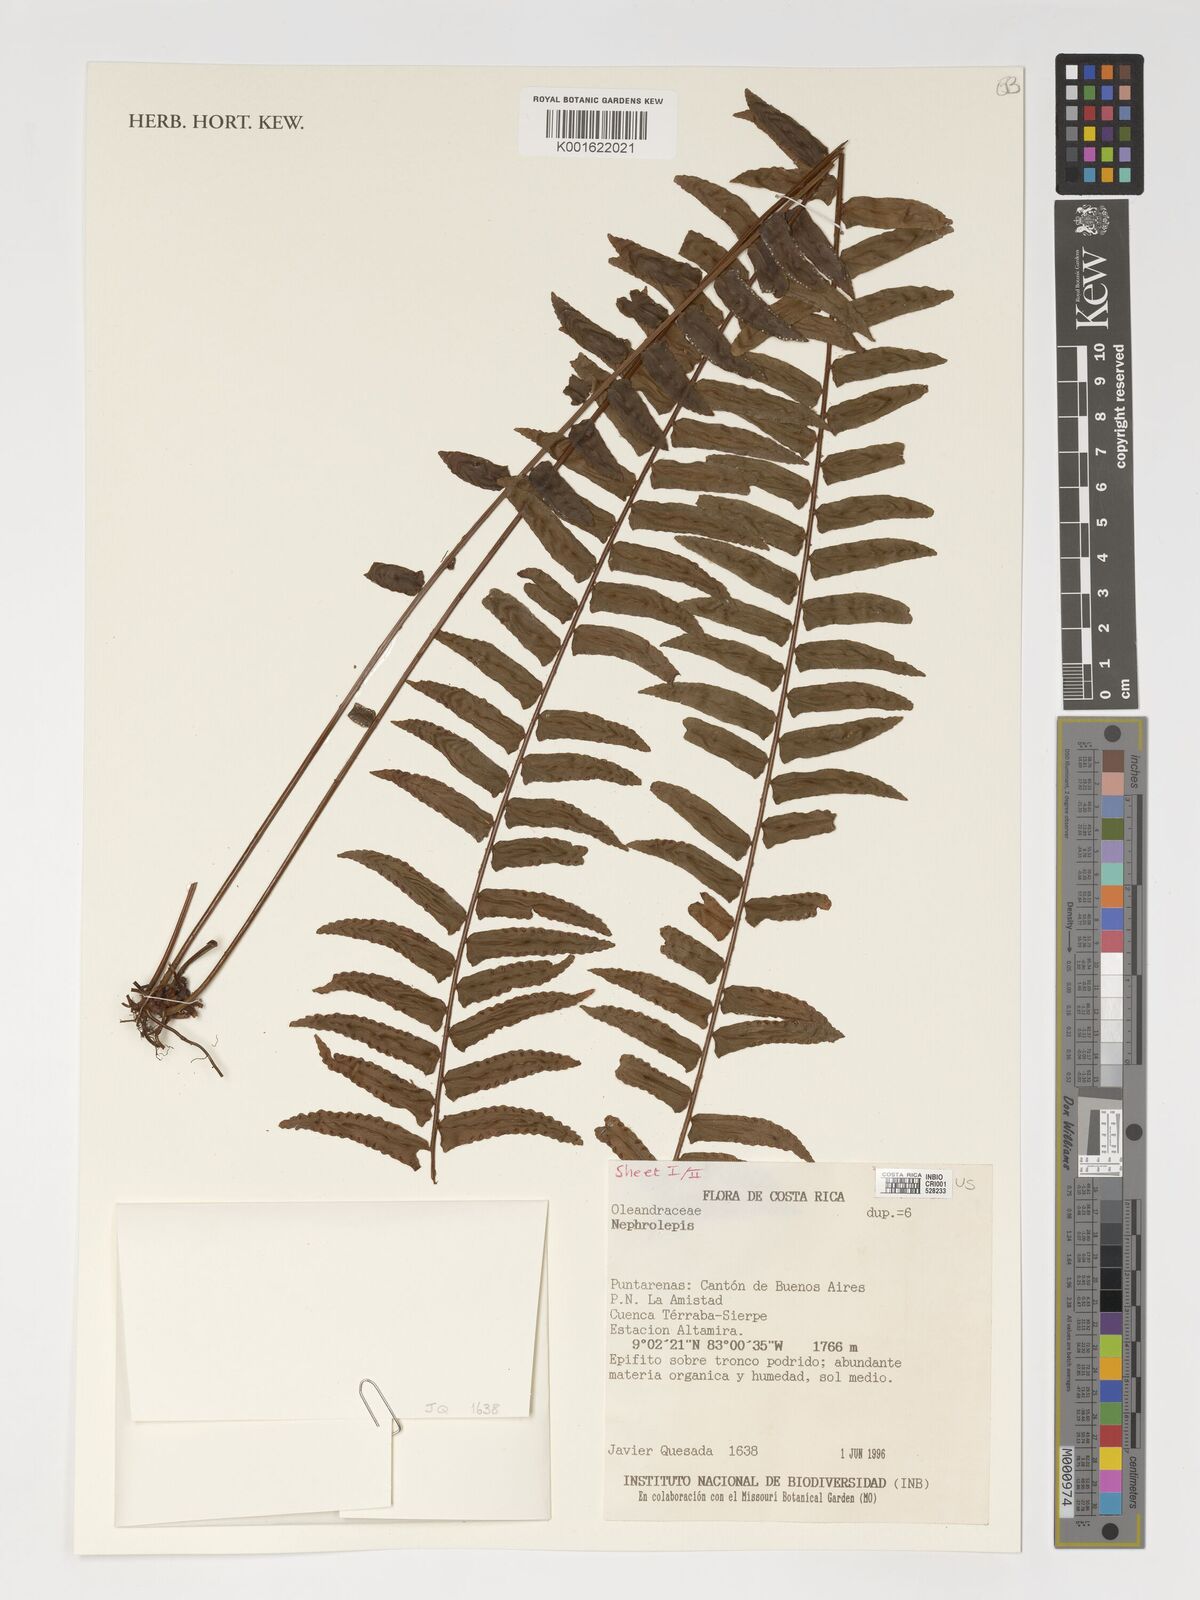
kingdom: Plantae
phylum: Tracheophyta
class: Polypodiopsida
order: Polypodiales
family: Nephrolepidaceae
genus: Nephrolepis
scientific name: Nephrolepis
